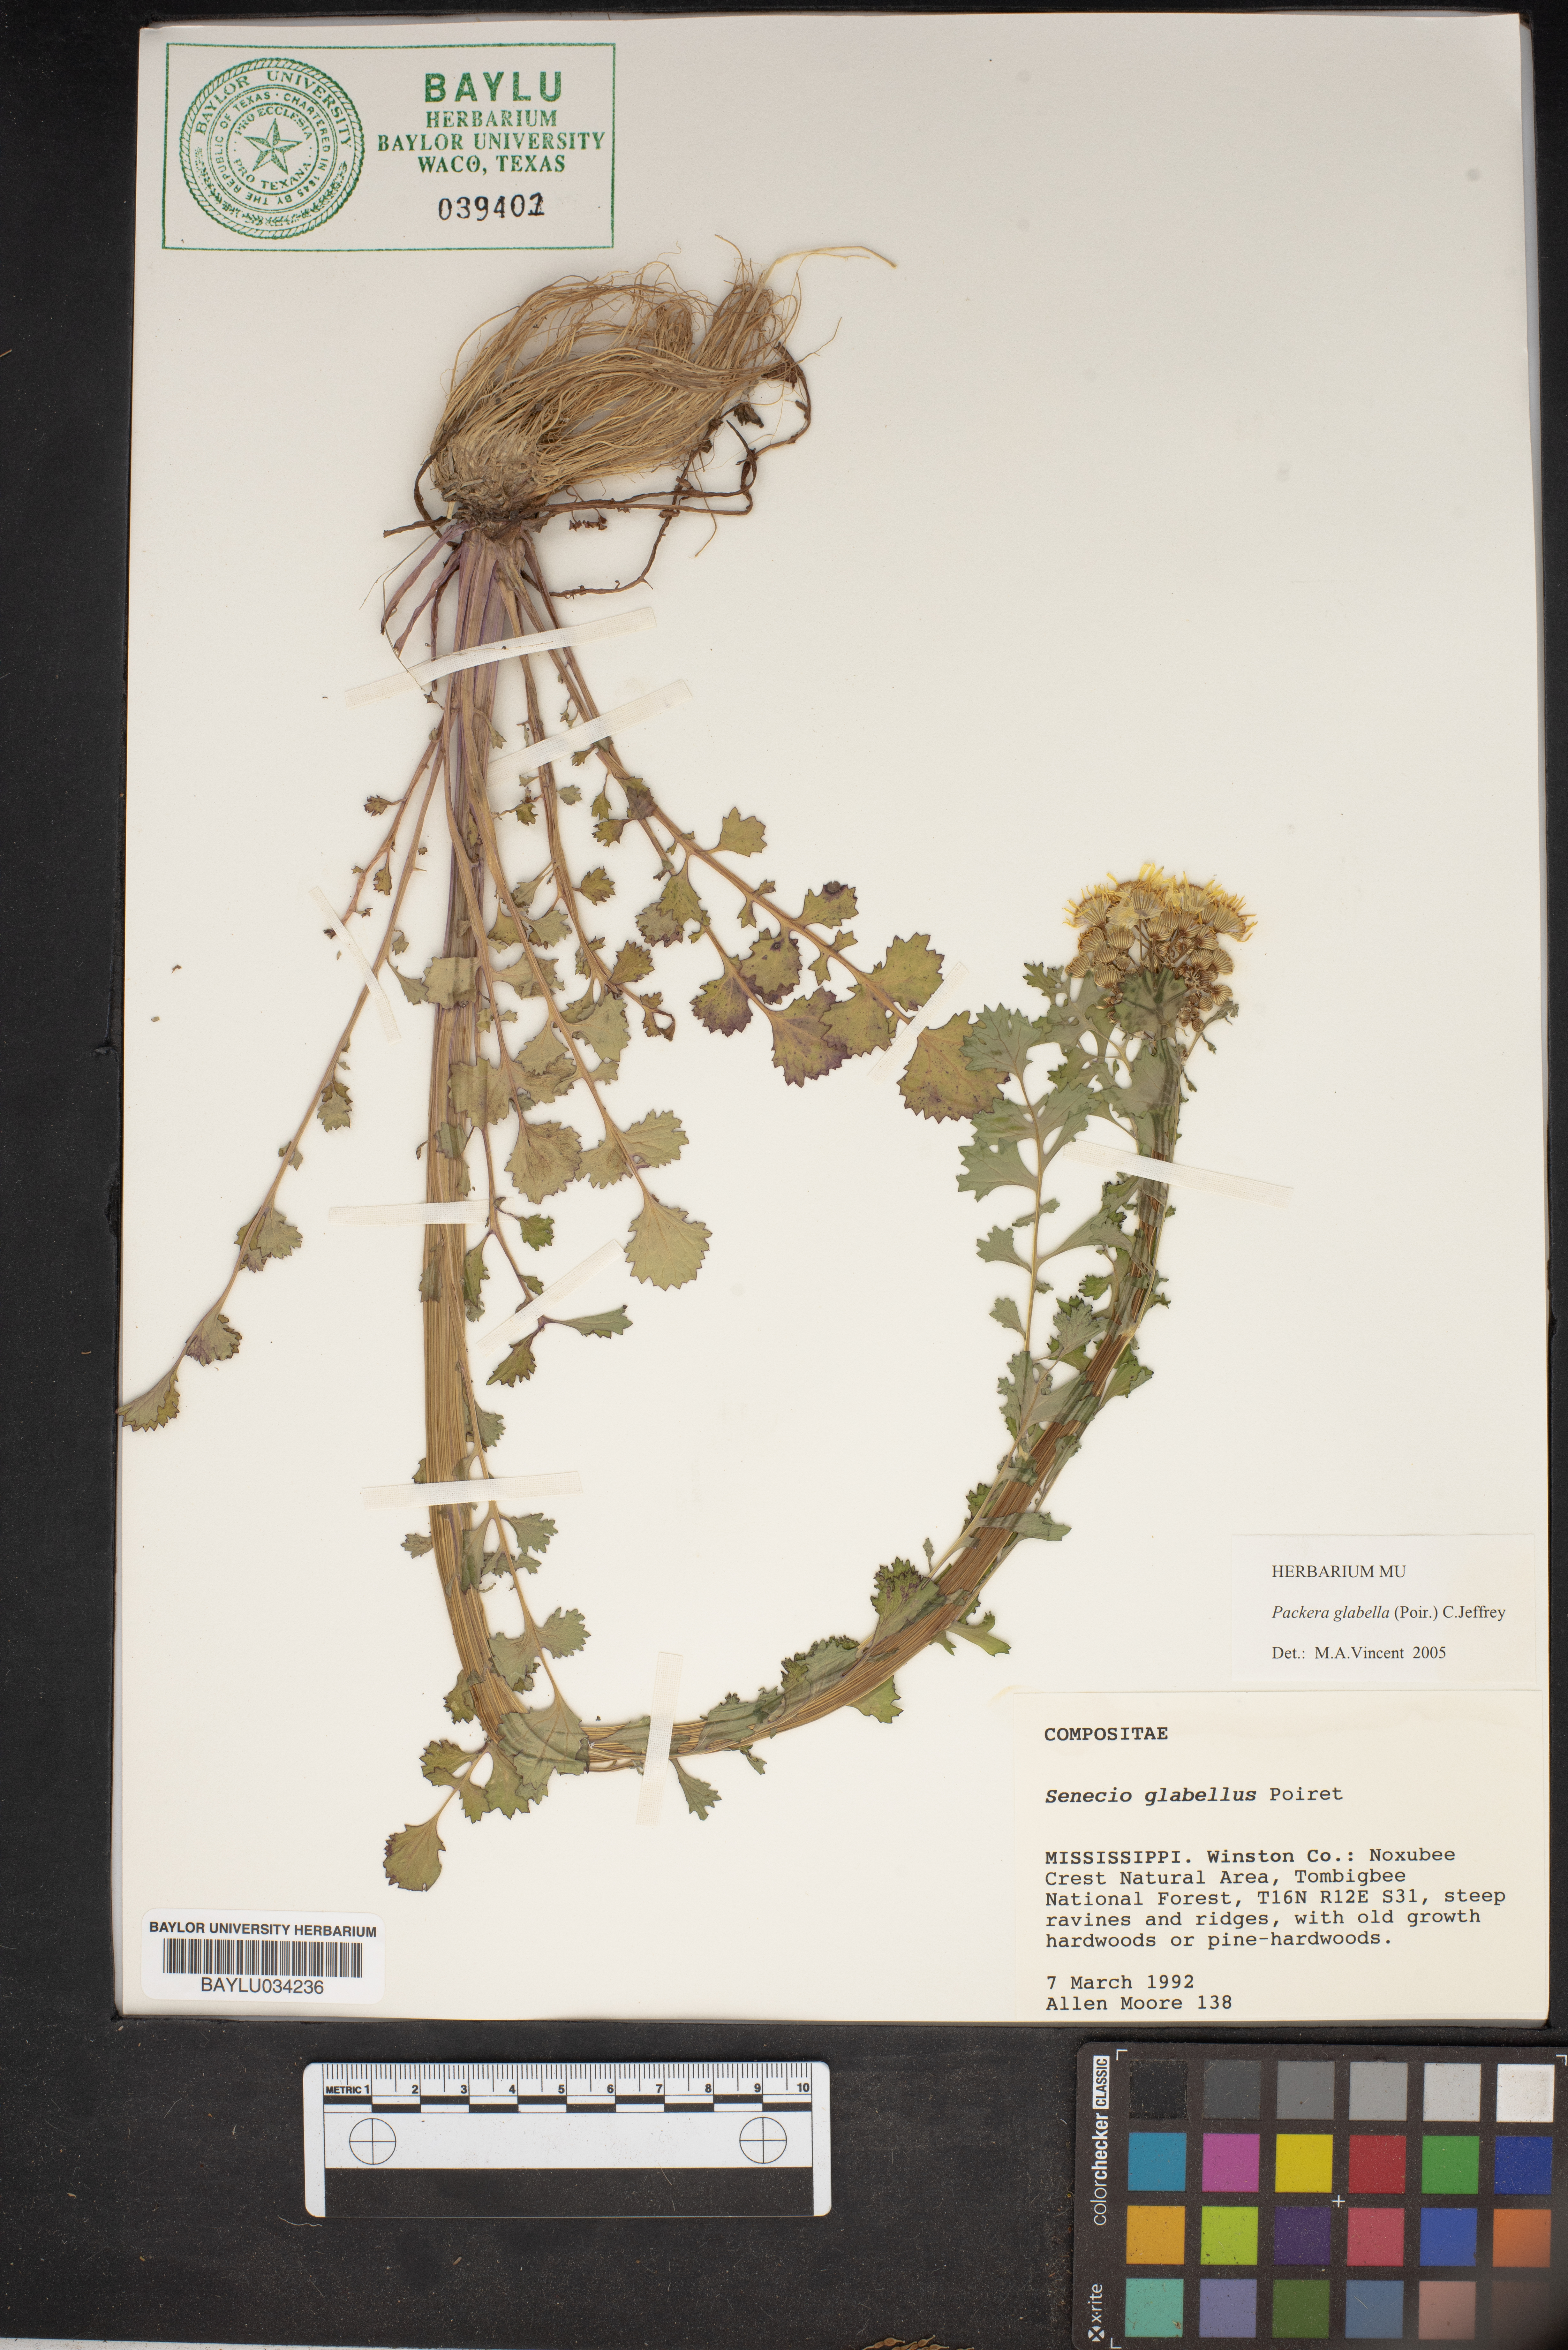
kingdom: Plantae
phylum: Tracheophyta
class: Magnoliopsida
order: Asterales
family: Asteraceae
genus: Tephroseris
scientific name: Tephroseris praticola
